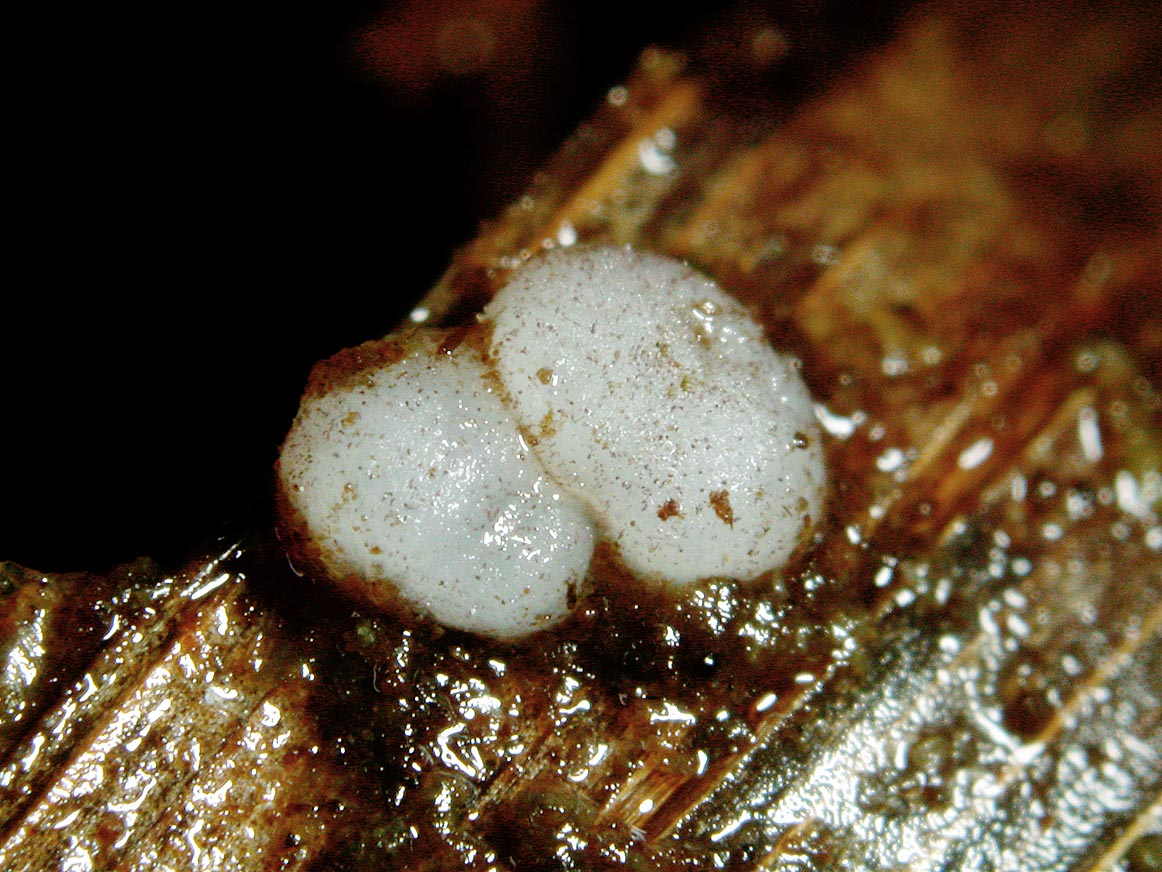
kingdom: Fungi
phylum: Ascomycota
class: Pezizomycetes
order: Pezizales
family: Ascobolaceae
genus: Ascobolus
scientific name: Ascobolus rhytidosporus
